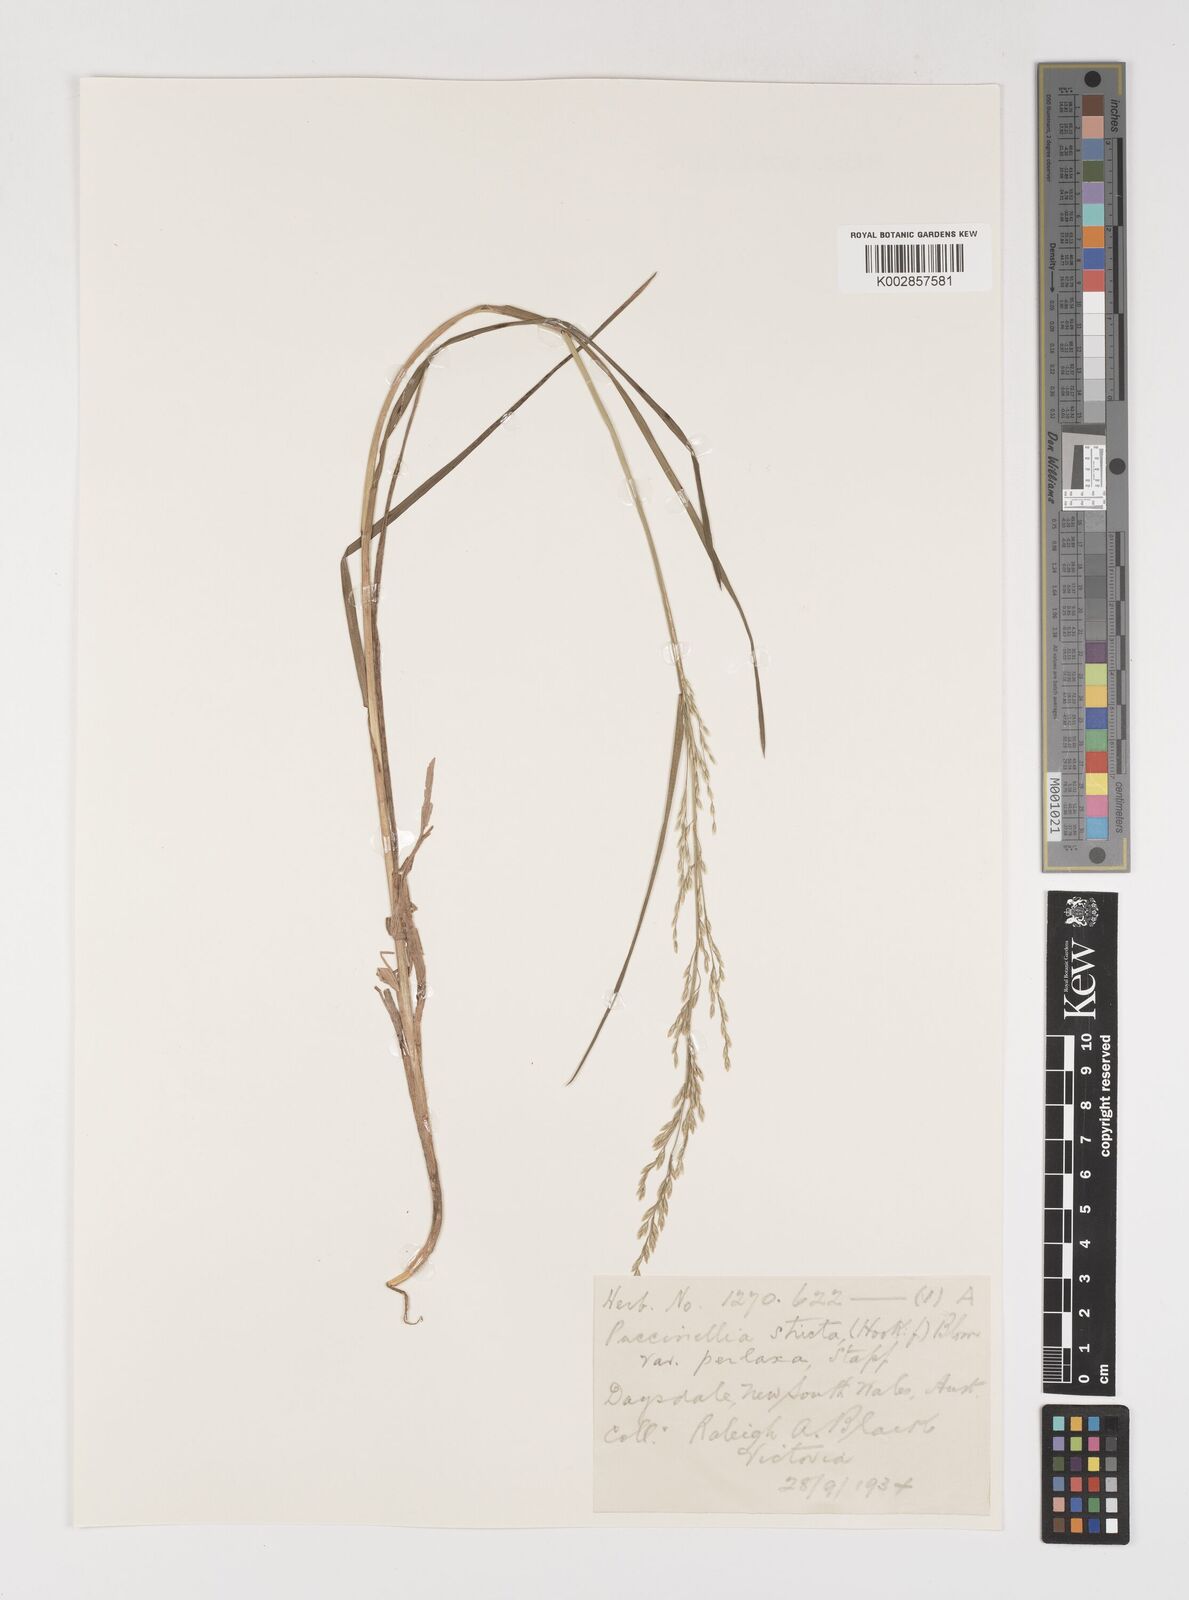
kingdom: Plantae
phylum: Tracheophyta
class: Liliopsida
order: Poales
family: Poaceae
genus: Puccinellia
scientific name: Puccinellia stricta
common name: Australian saltmarsh grass
